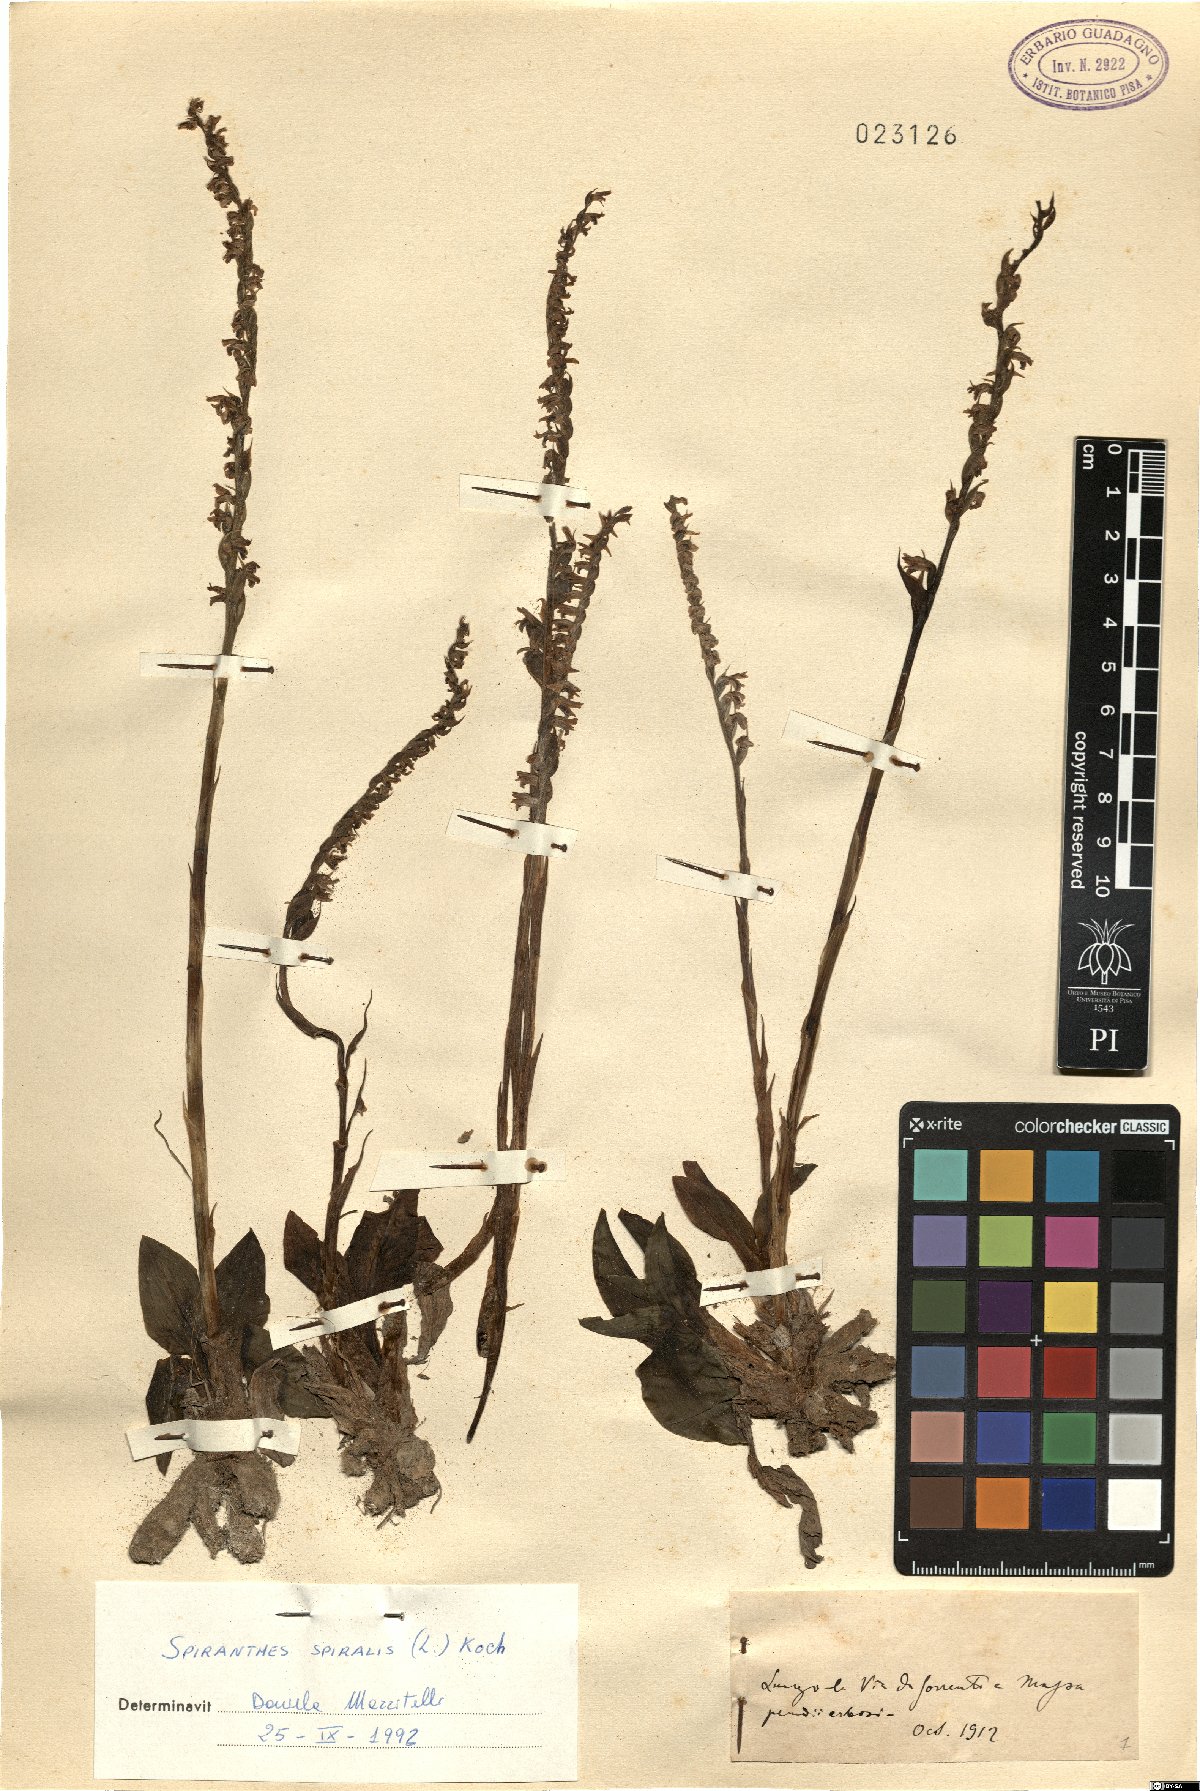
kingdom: Plantae
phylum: Tracheophyta
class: Liliopsida
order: Asparagales
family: Orchidaceae
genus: Spiranthes
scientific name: Spiranthes spiralis
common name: Autumn lady's-tresses
